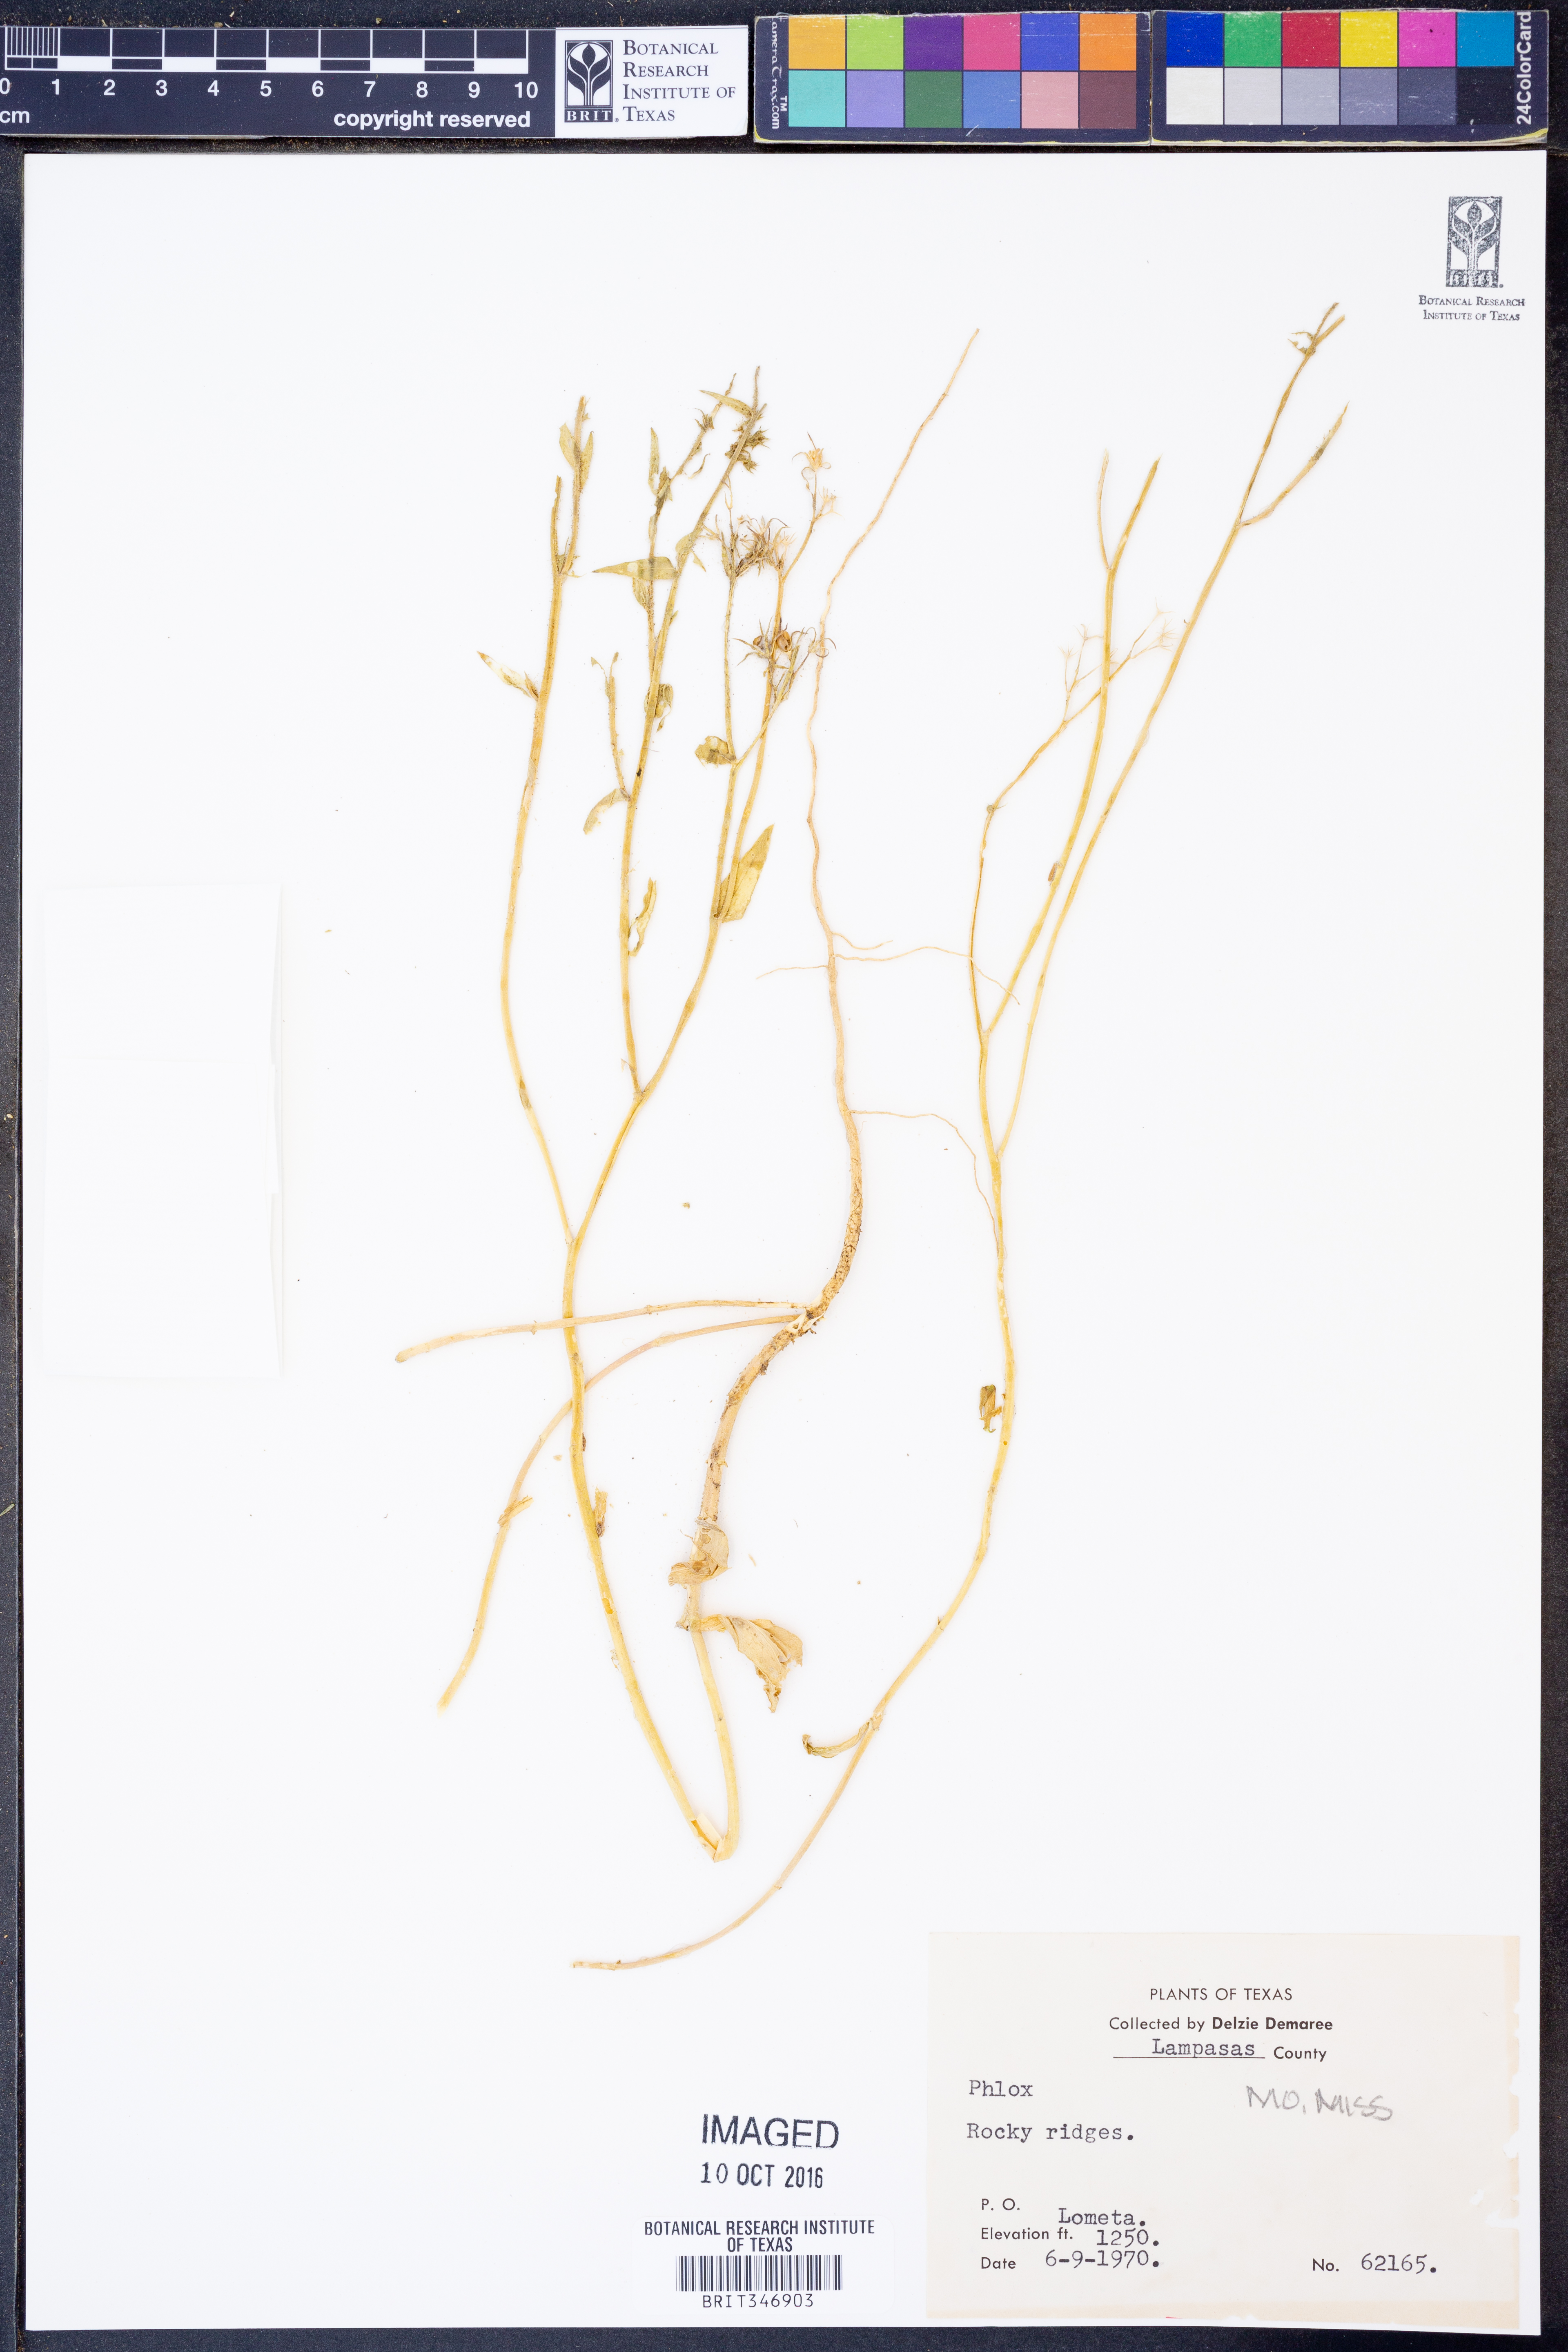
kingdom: Plantae
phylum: Tracheophyta
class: Magnoliopsida
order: Ericales
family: Polemoniaceae
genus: Phlox
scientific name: Phlox
